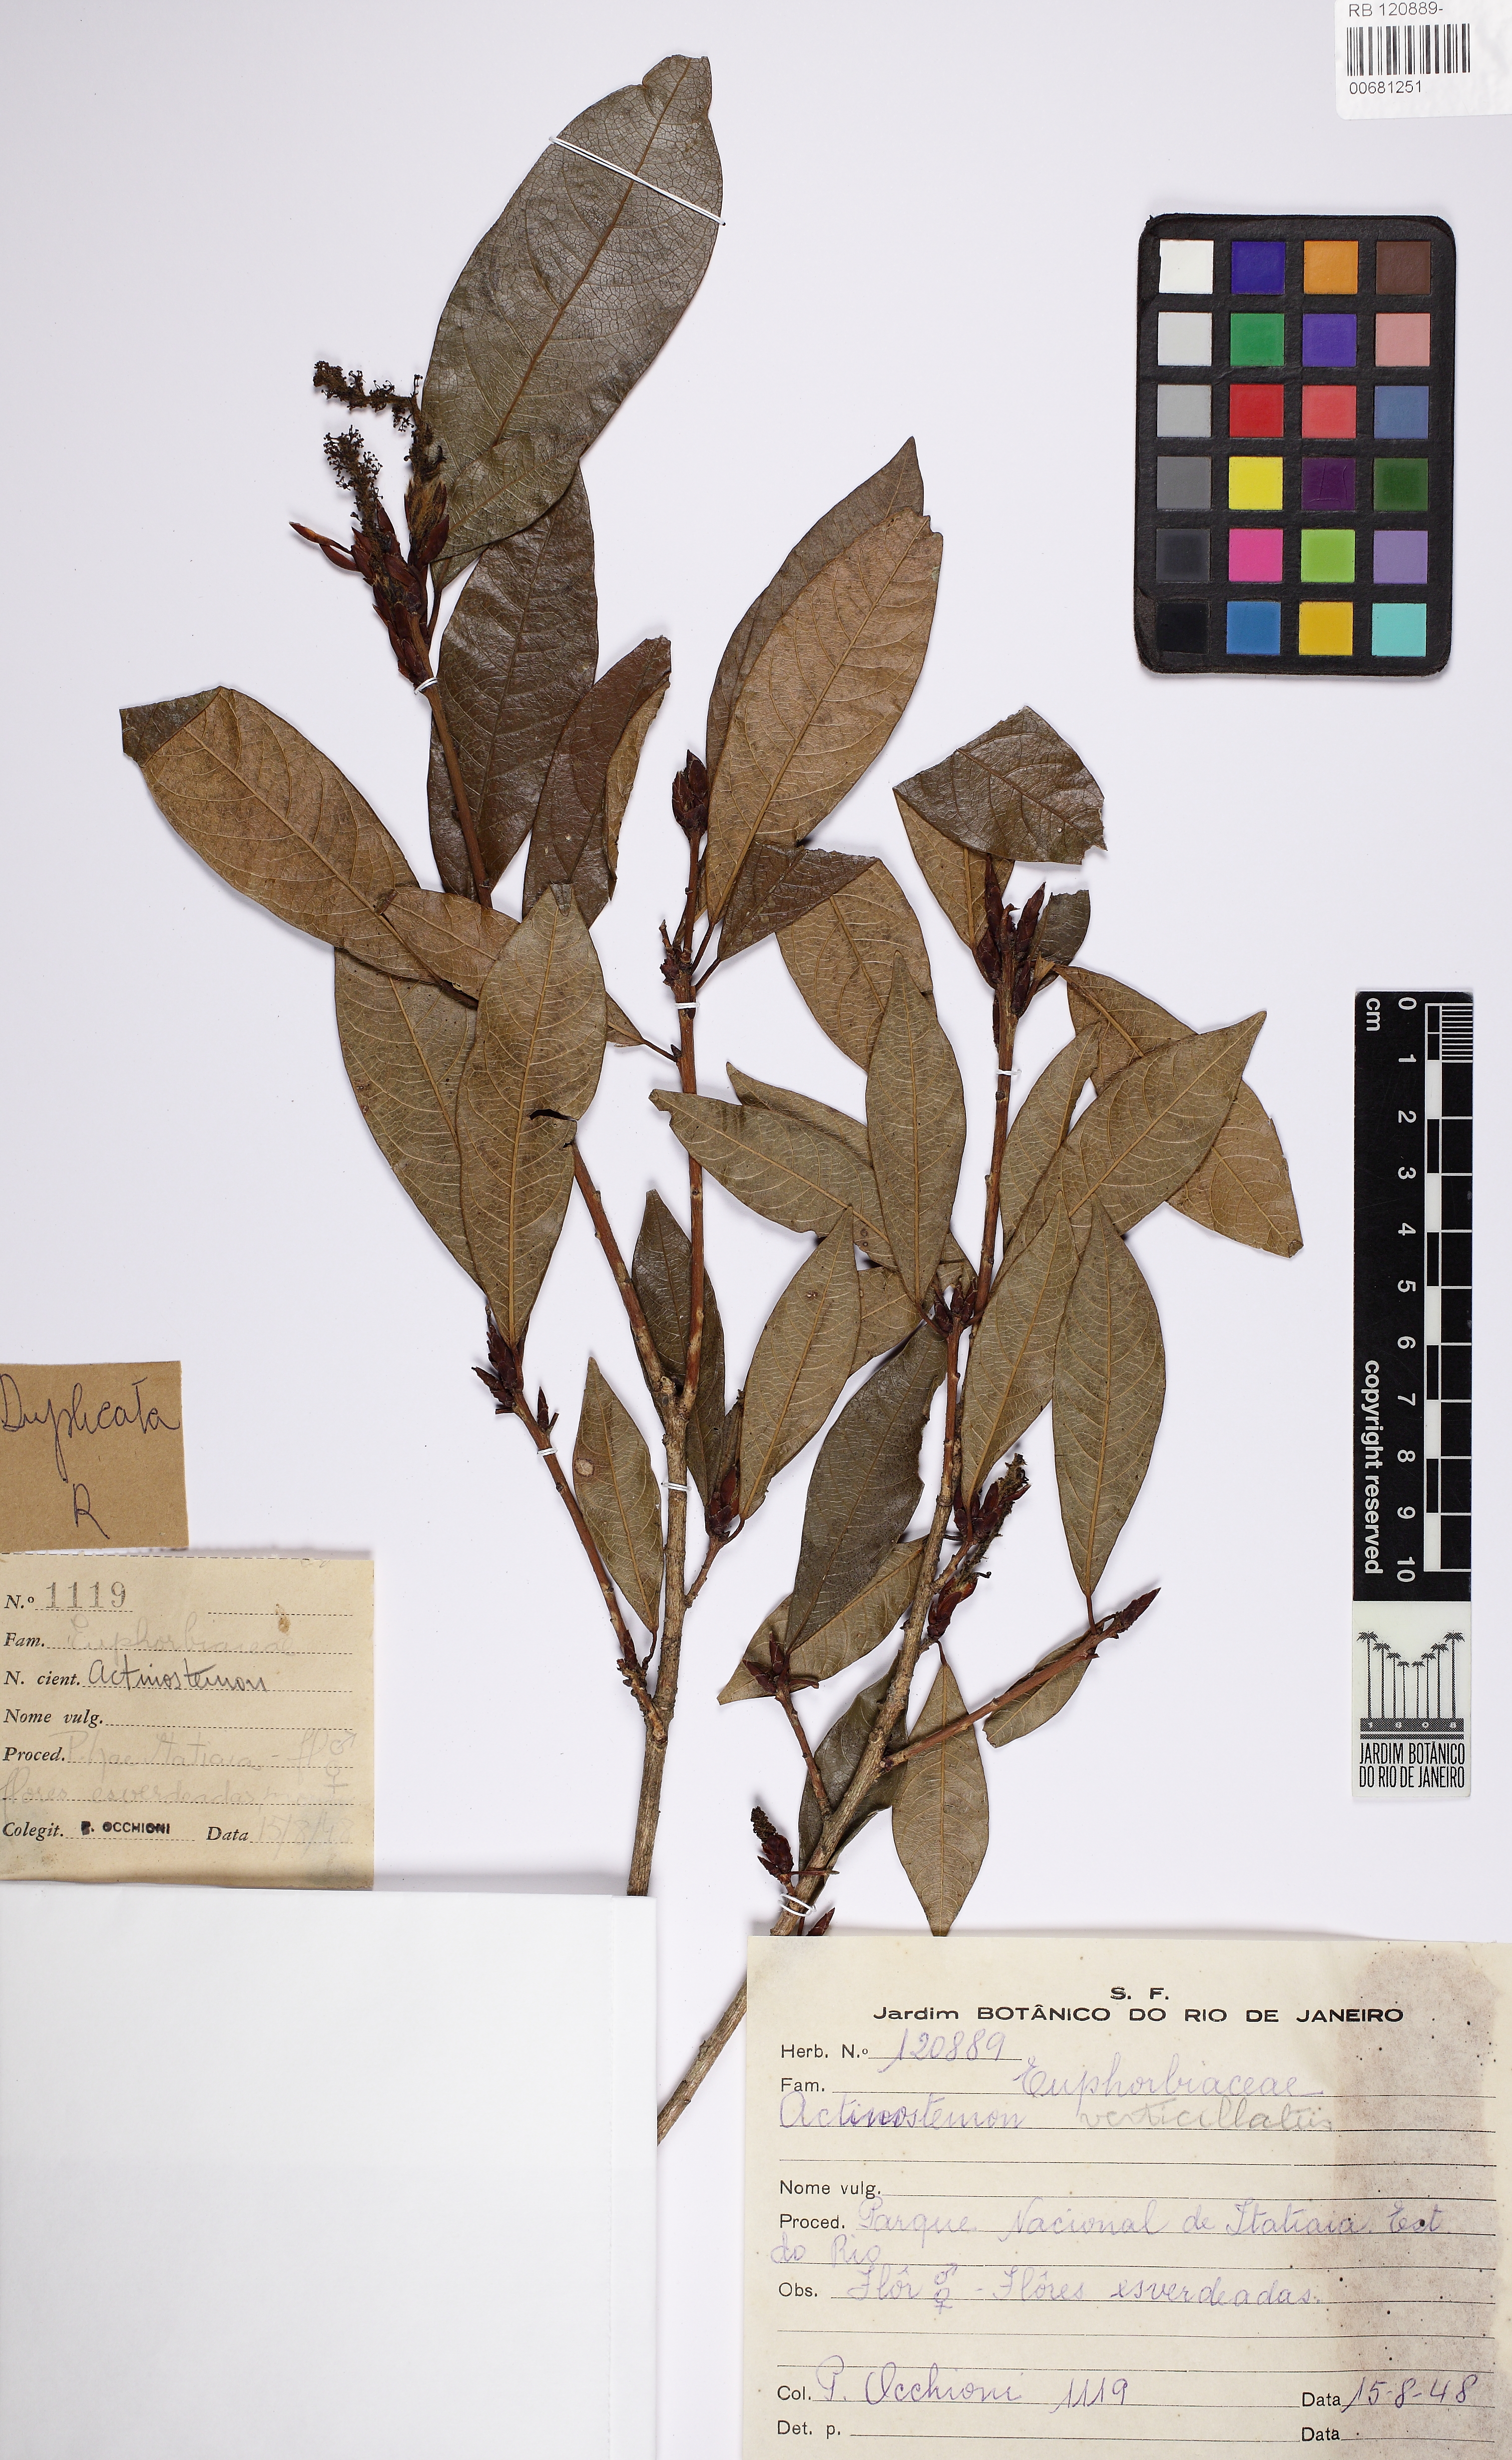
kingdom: Plantae
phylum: Tracheophyta
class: Magnoliopsida
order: Malpighiales
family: Euphorbiaceae
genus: Actinostemon
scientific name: Actinostemon verticillatus
